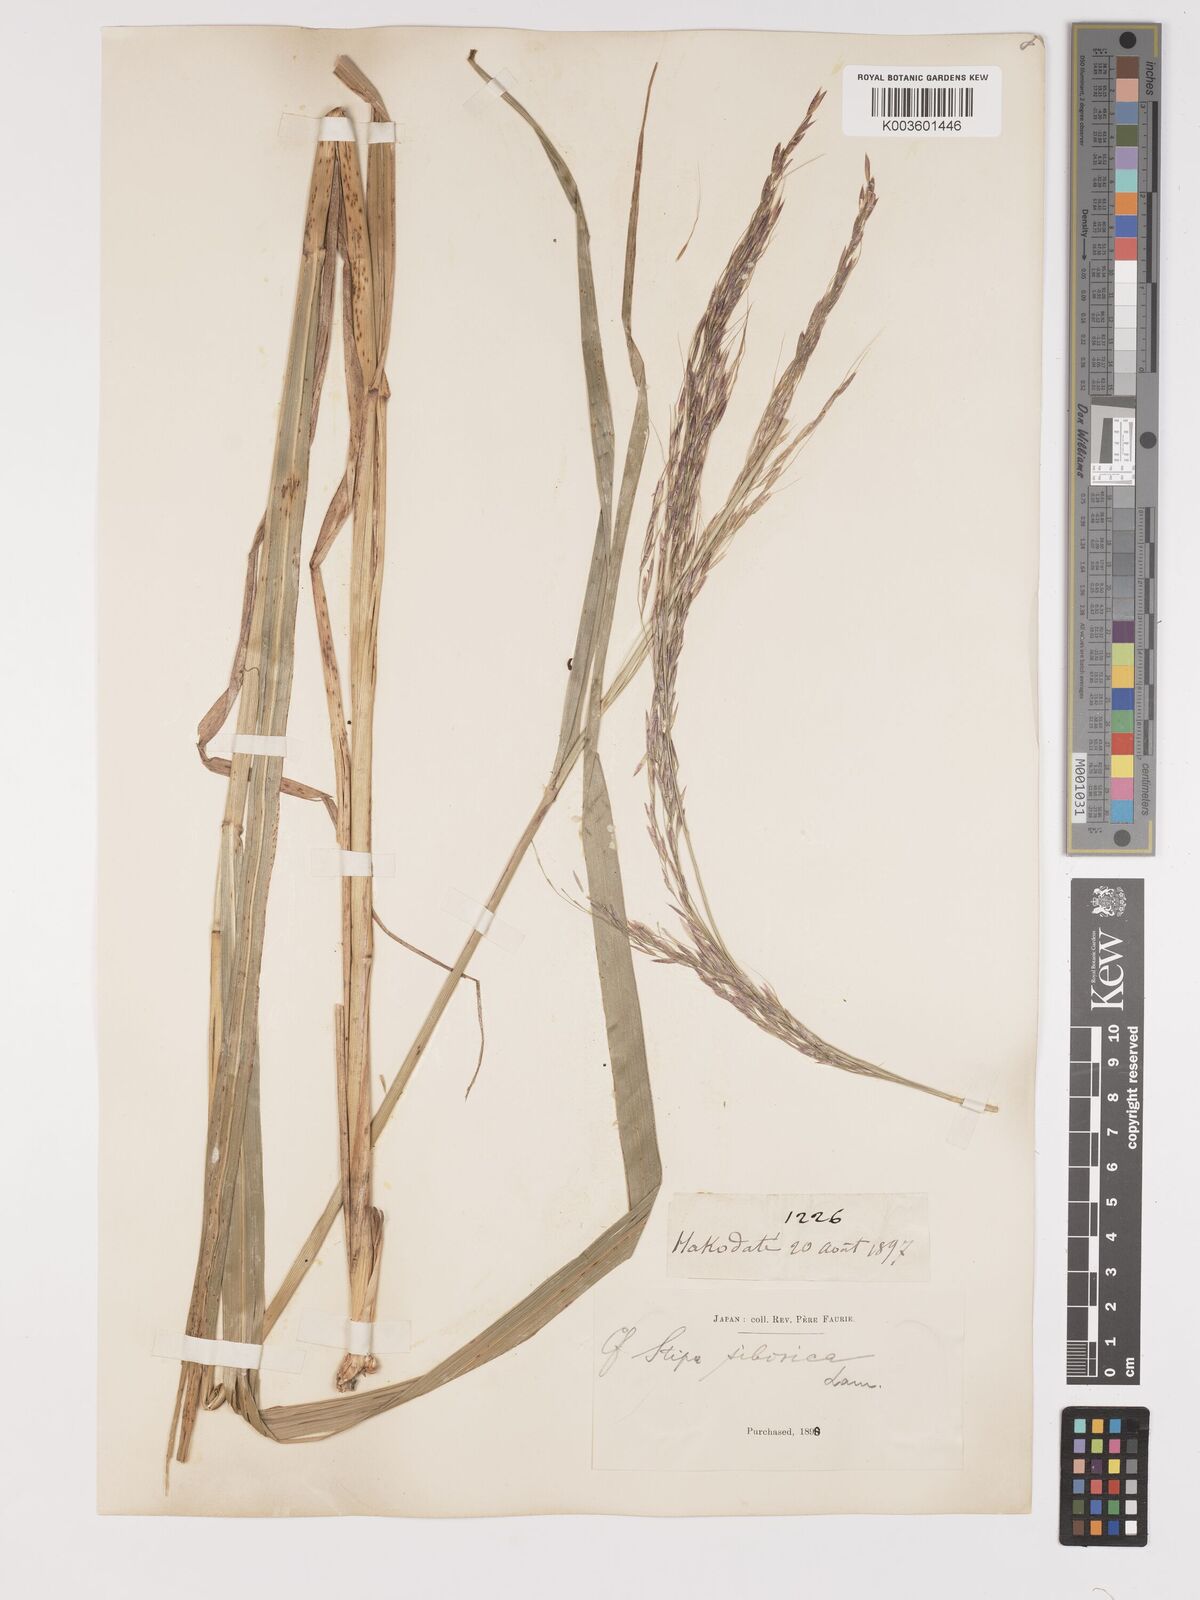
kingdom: Plantae
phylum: Tracheophyta
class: Liliopsida
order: Poales
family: Poaceae
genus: Achnatherum
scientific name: Achnatherum pekinense
